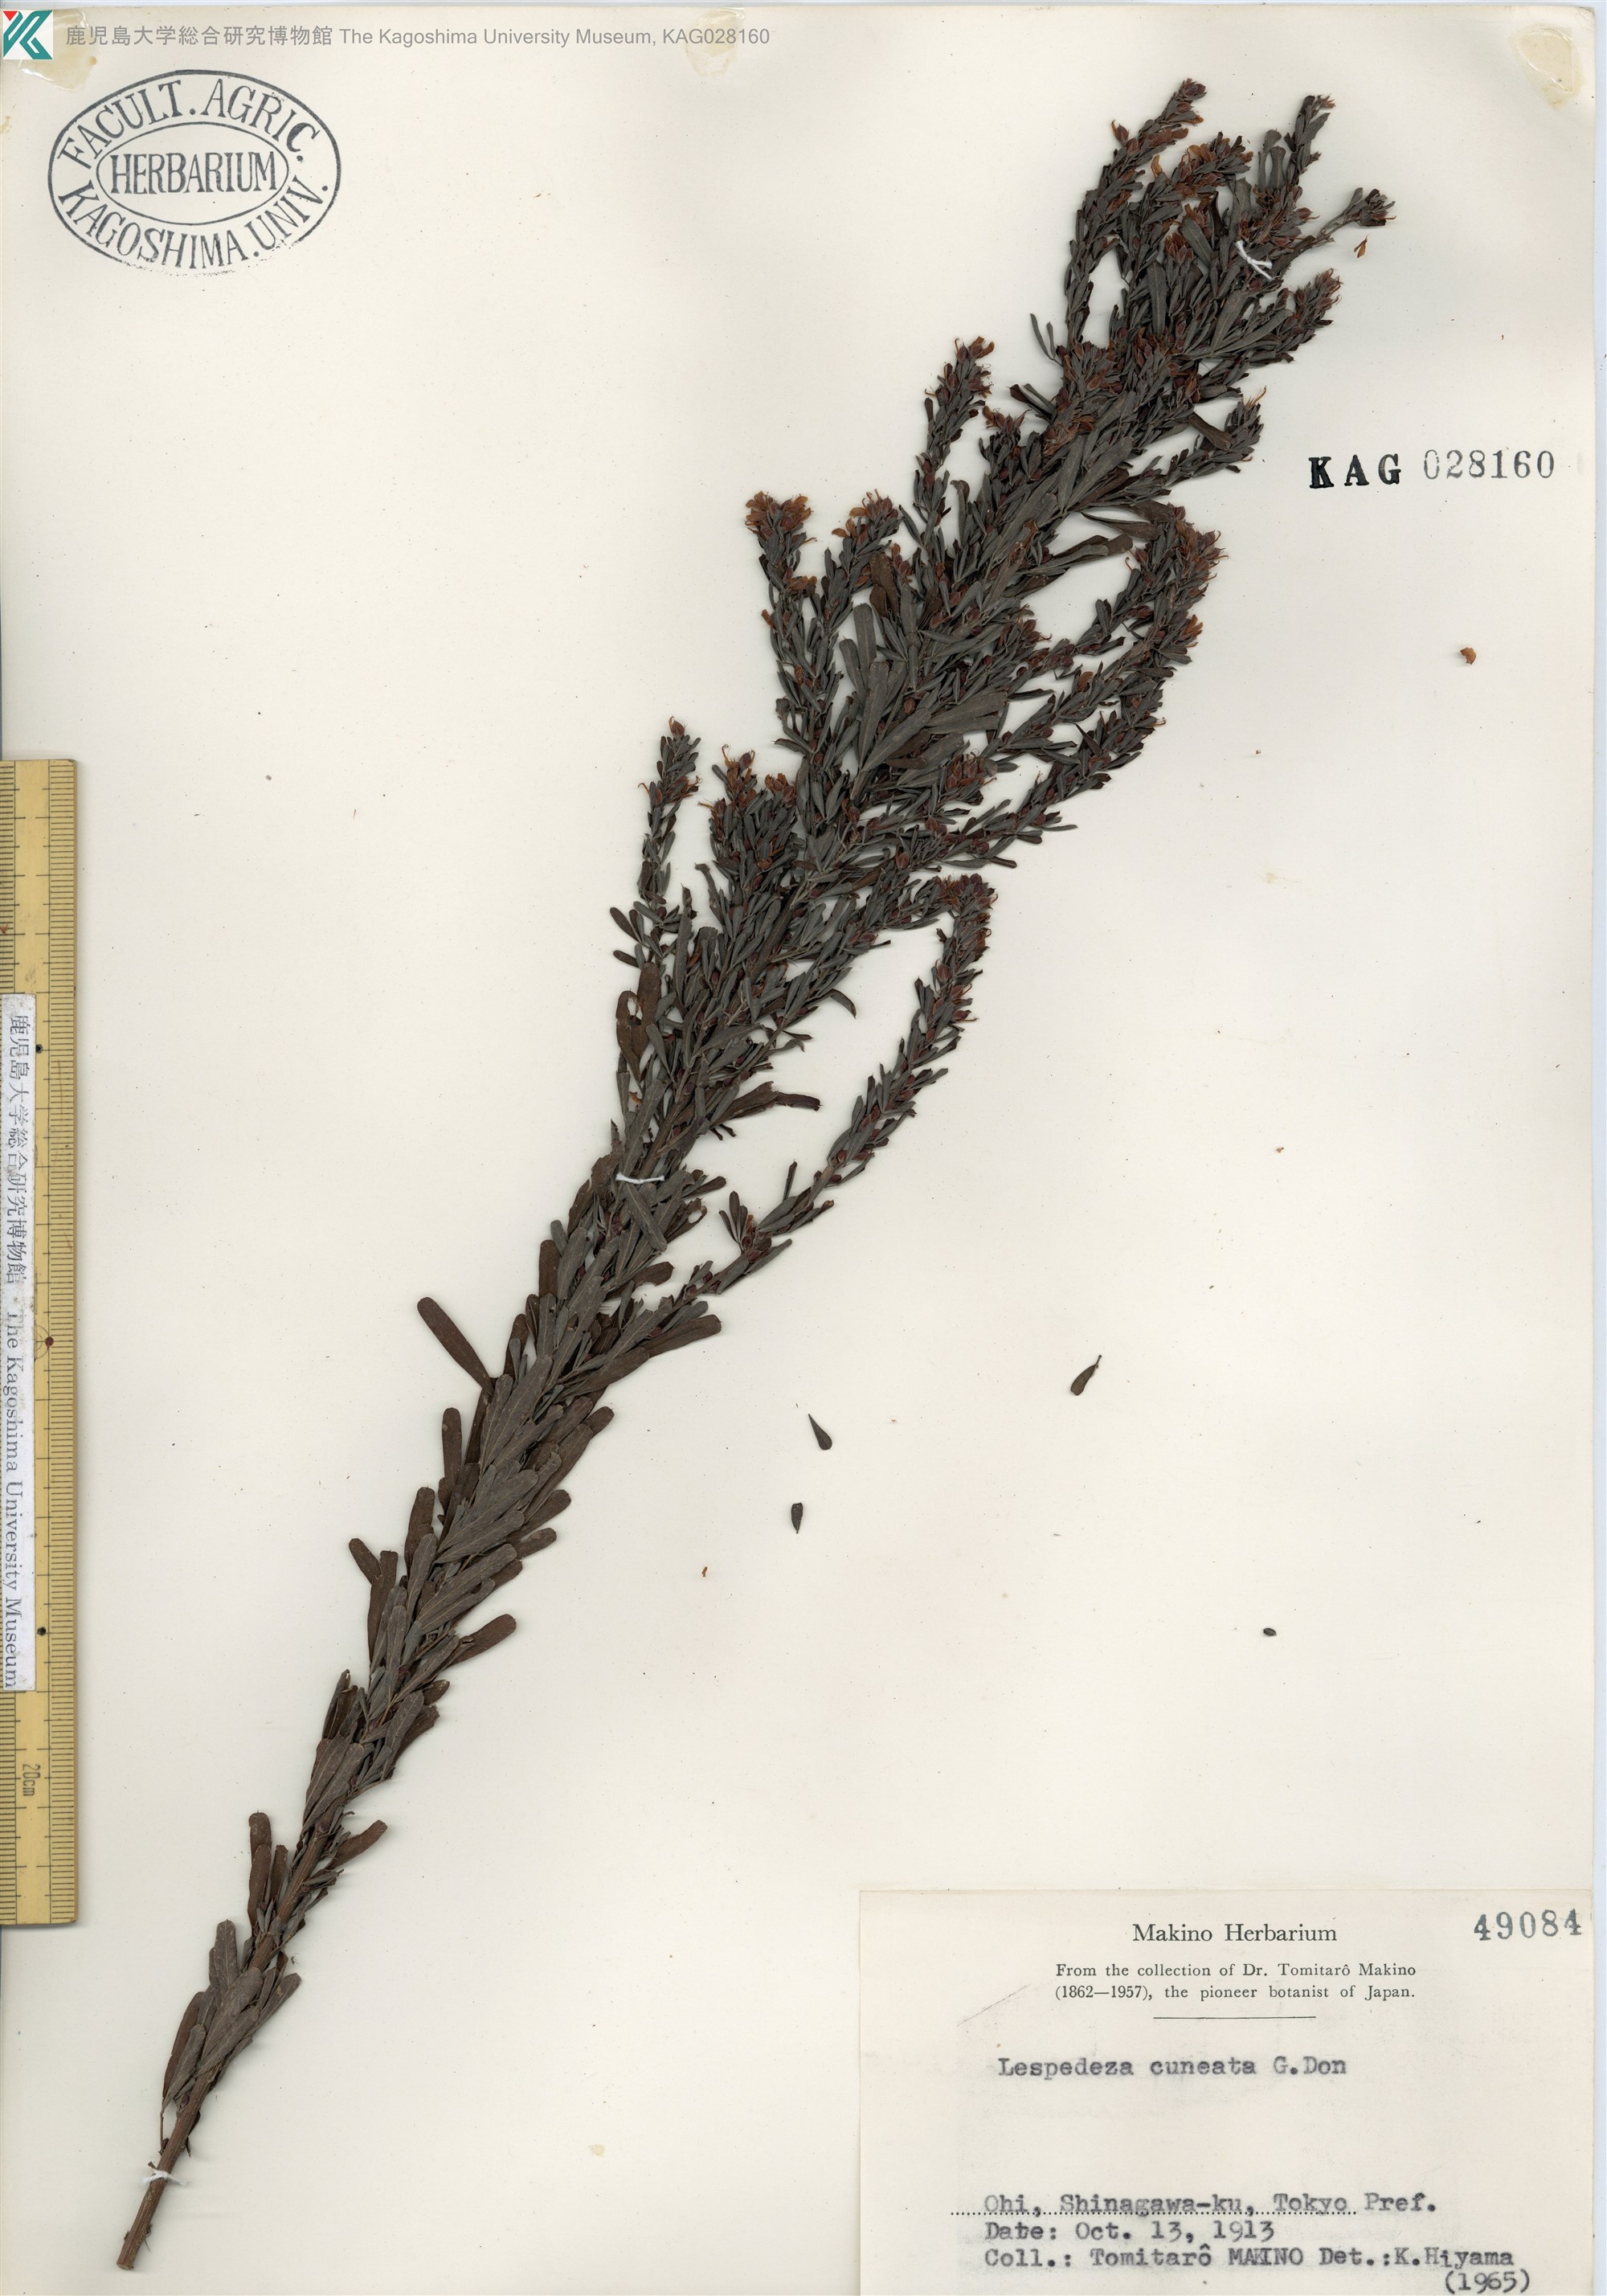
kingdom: Plantae
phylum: Tracheophyta
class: Magnoliopsida
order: Fabales
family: Fabaceae
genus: Lespedeza
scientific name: Lespedeza cuneata
